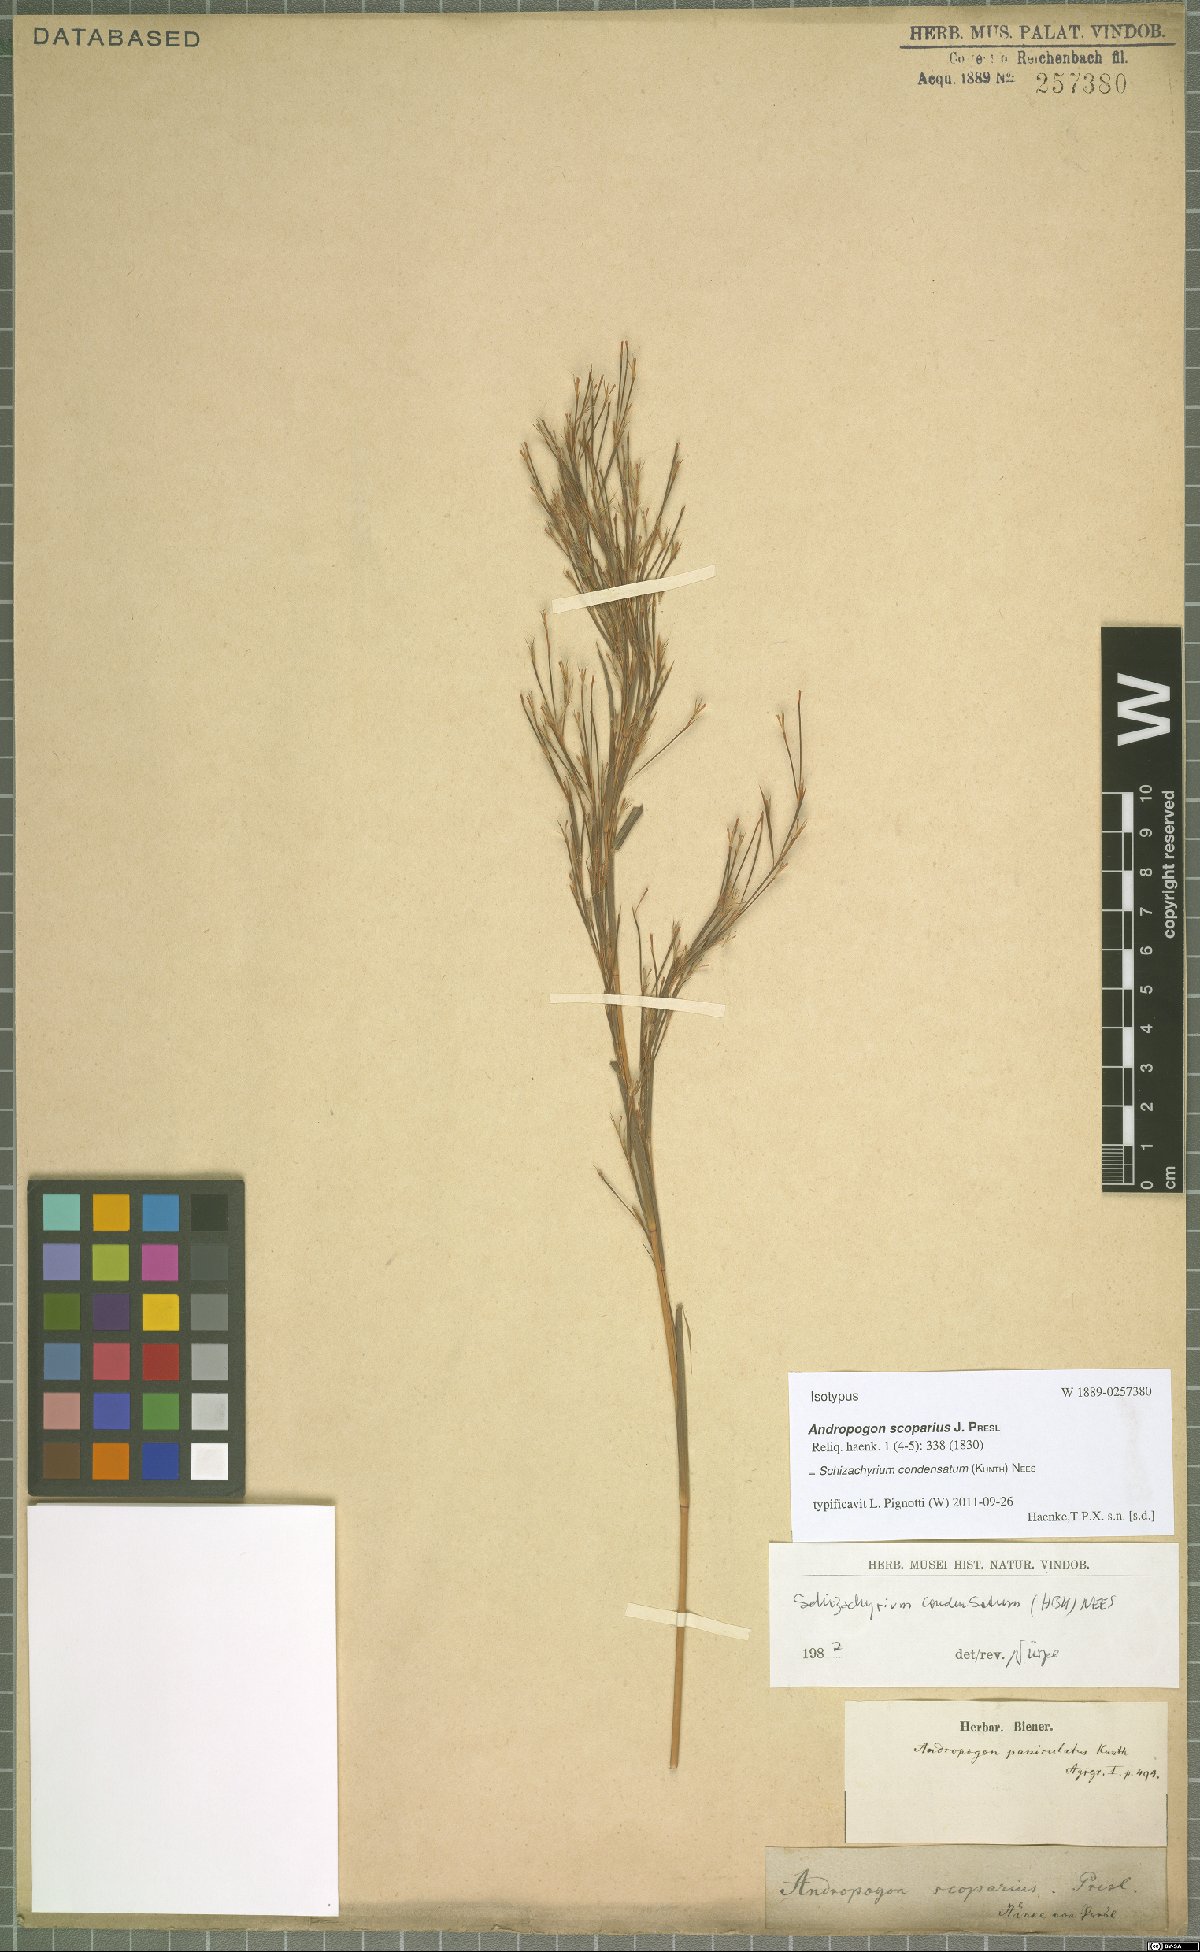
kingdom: Plantae
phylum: Tracheophyta
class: Liliopsida
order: Poales
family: Poaceae
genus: Schizachyrium
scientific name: Schizachyrium condensatum
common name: Bush beardgrass
